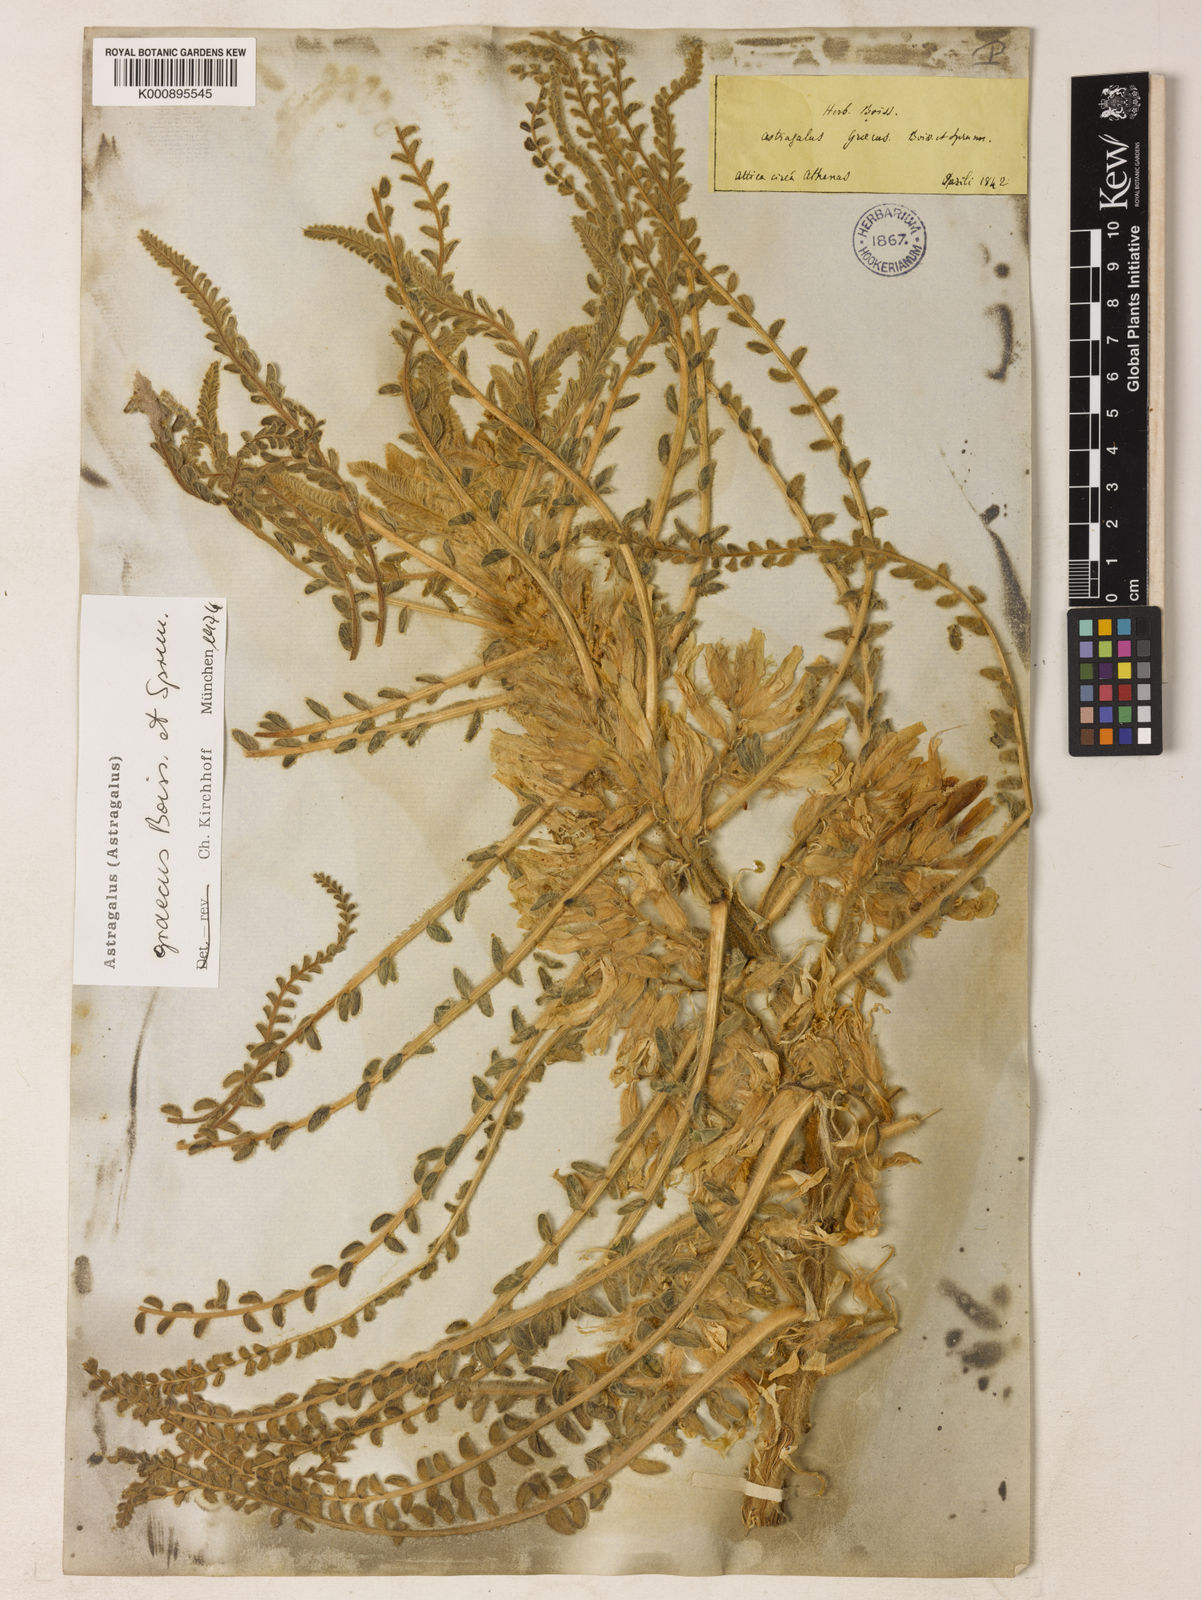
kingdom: Plantae
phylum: Tracheophyta
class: Magnoliopsida
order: Fabales
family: Fabaceae
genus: Astragalus
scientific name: Astragalus graecus
